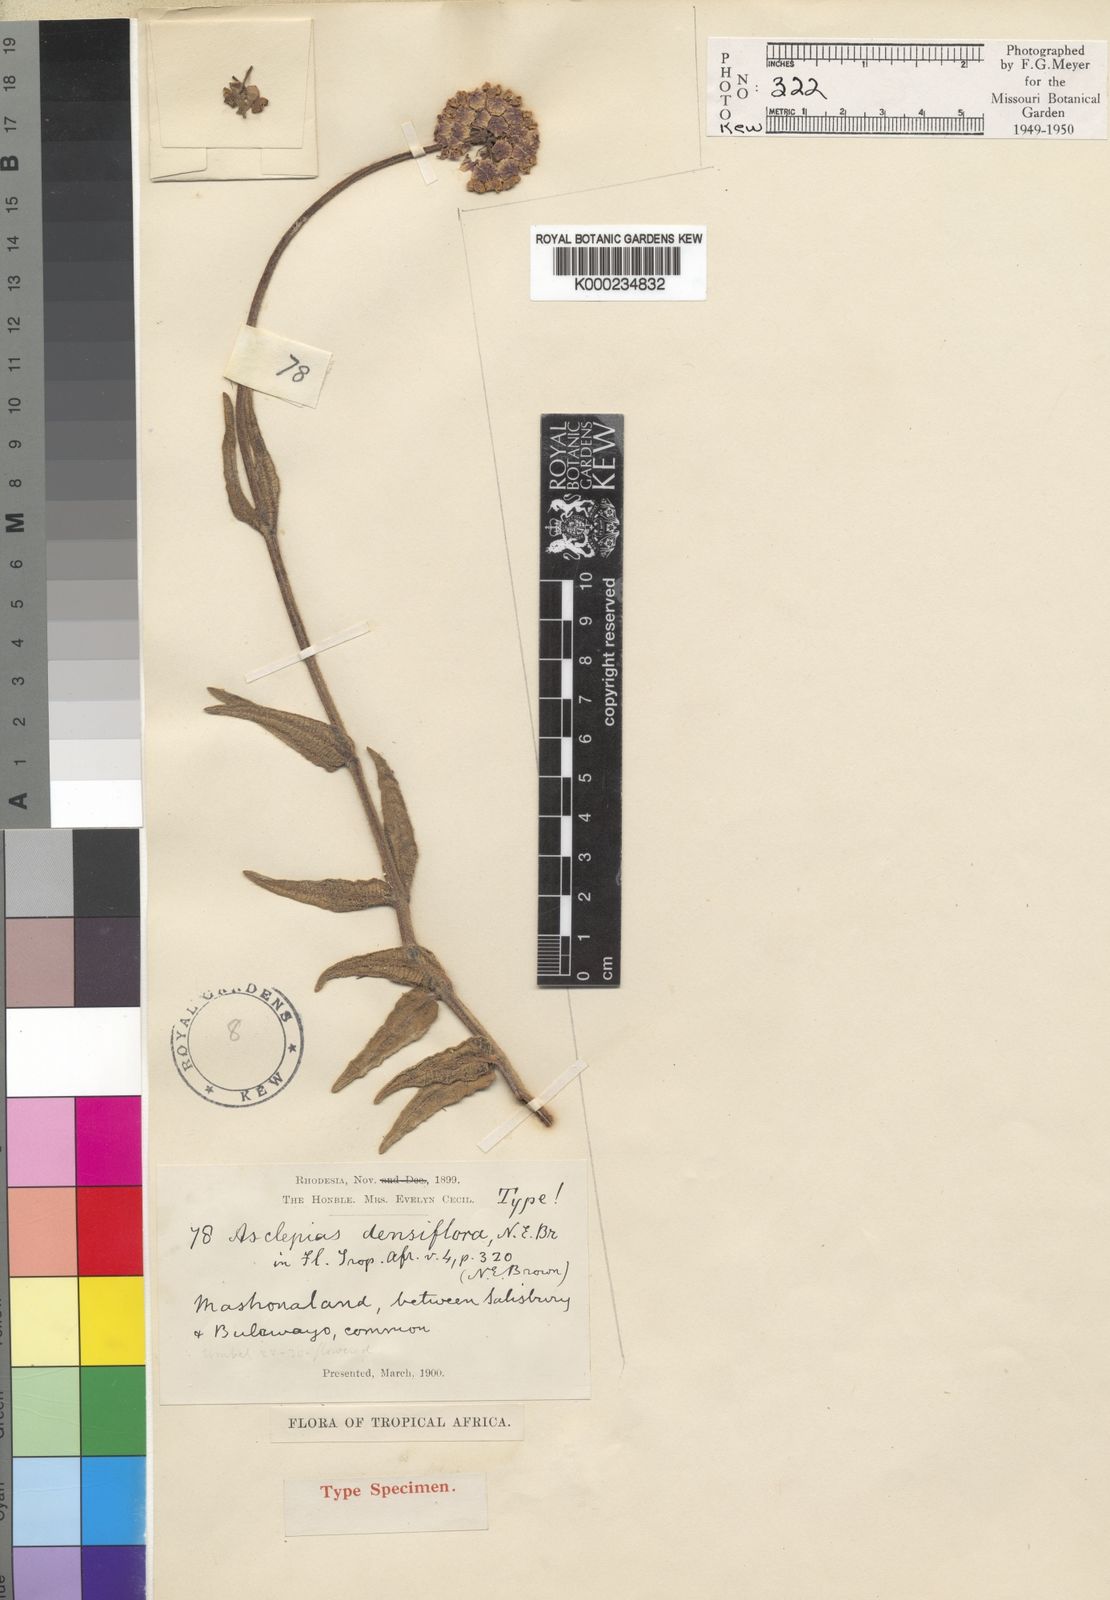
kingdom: Plantae
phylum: Tracheophyta
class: Magnoliopsida
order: Gentianales
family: Apocynaceae
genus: Asclepias
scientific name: Asclepias densiflora
